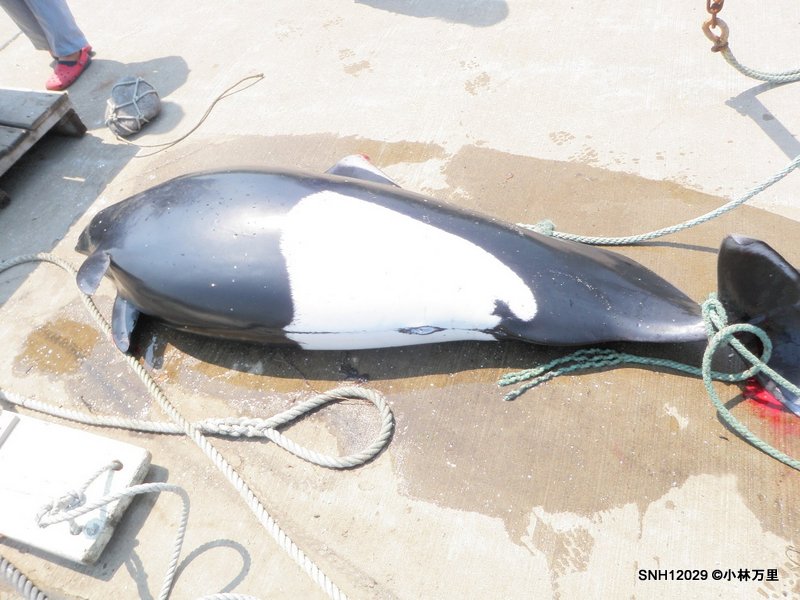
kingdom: Animalia
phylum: Chordata
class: Mammalia
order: Cetacea
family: Phocoenidae
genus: Phocoenoides
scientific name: Phocoenoides dalli
